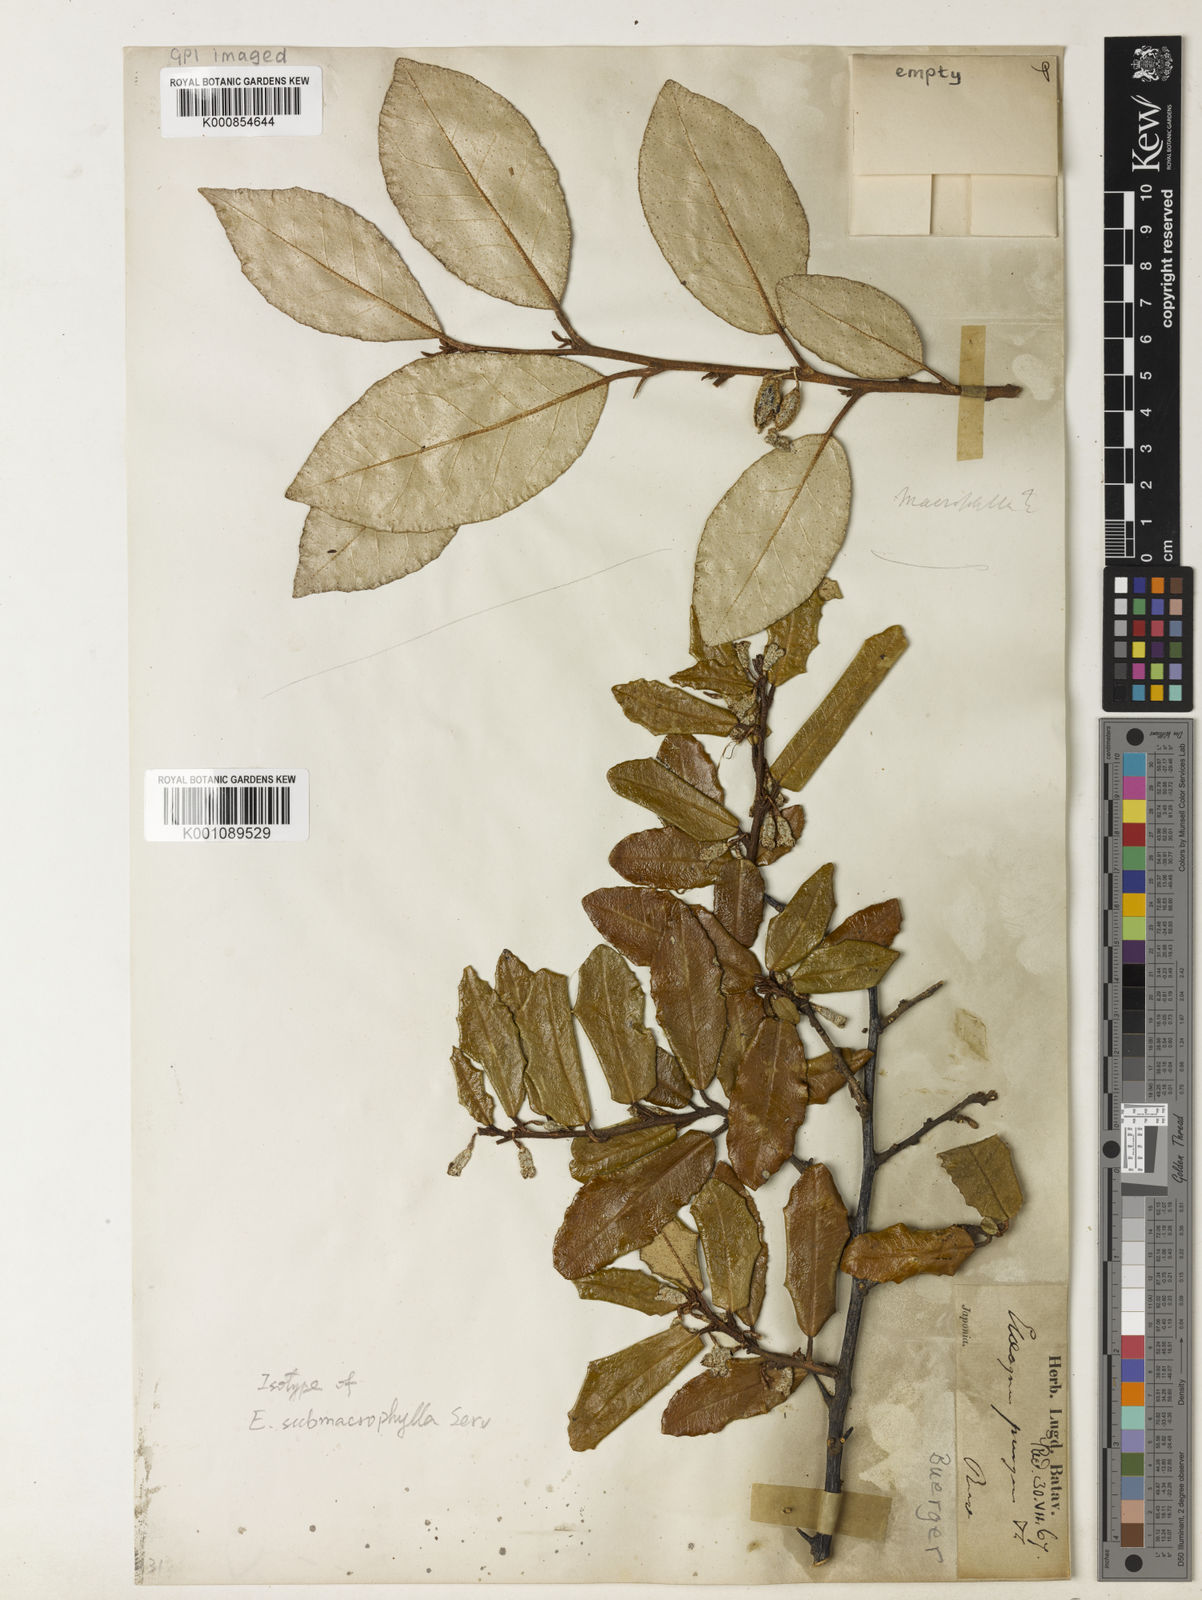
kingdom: Plantae
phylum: Tracheophyta
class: Magnoliopsida
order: Rosales
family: Elaeagnaceae
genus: Elaeagnus
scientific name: Elaeagnus pungens
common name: Spiny oleaster
